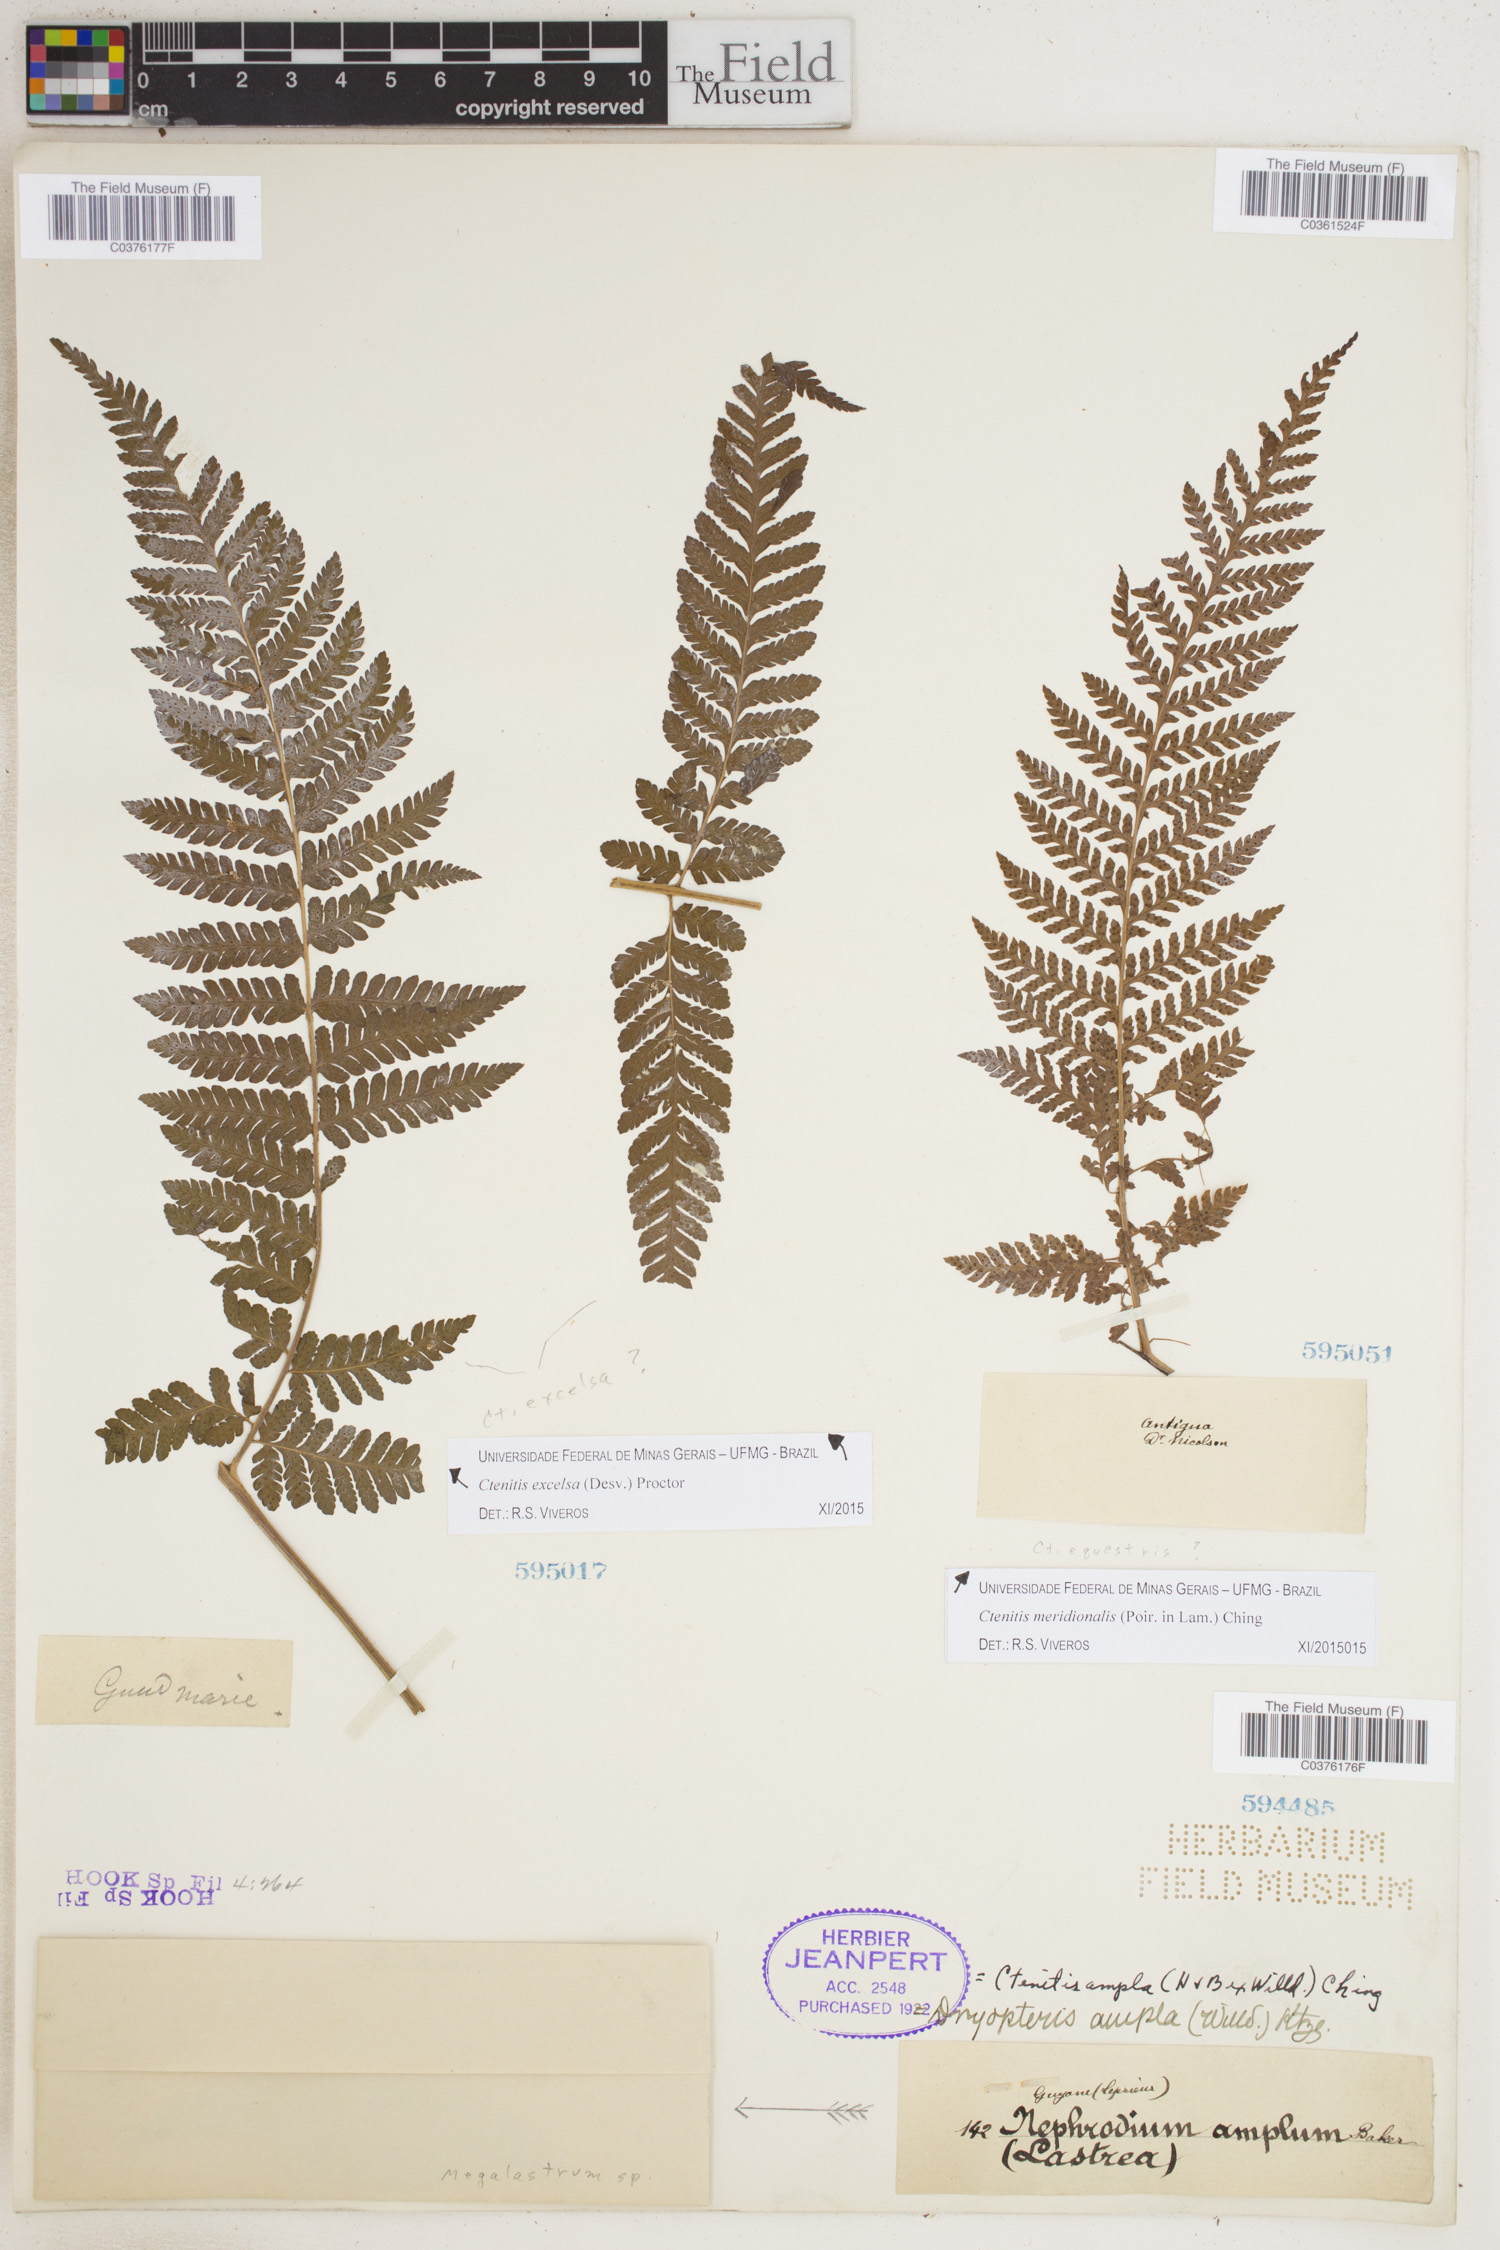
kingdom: Plantae
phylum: Tracheophyta
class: Polypodiopsida
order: Polypodiales
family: Dryopteridaceae
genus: Ctenitis
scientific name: Ctenitis excelsa
